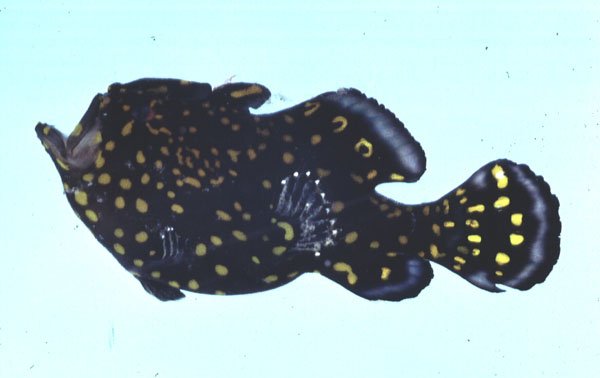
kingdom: Animalia
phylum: Chordata
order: Lophiiformes
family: Antennariidae
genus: Antennarius
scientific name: Antennarius pictus
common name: Painted frogfish
